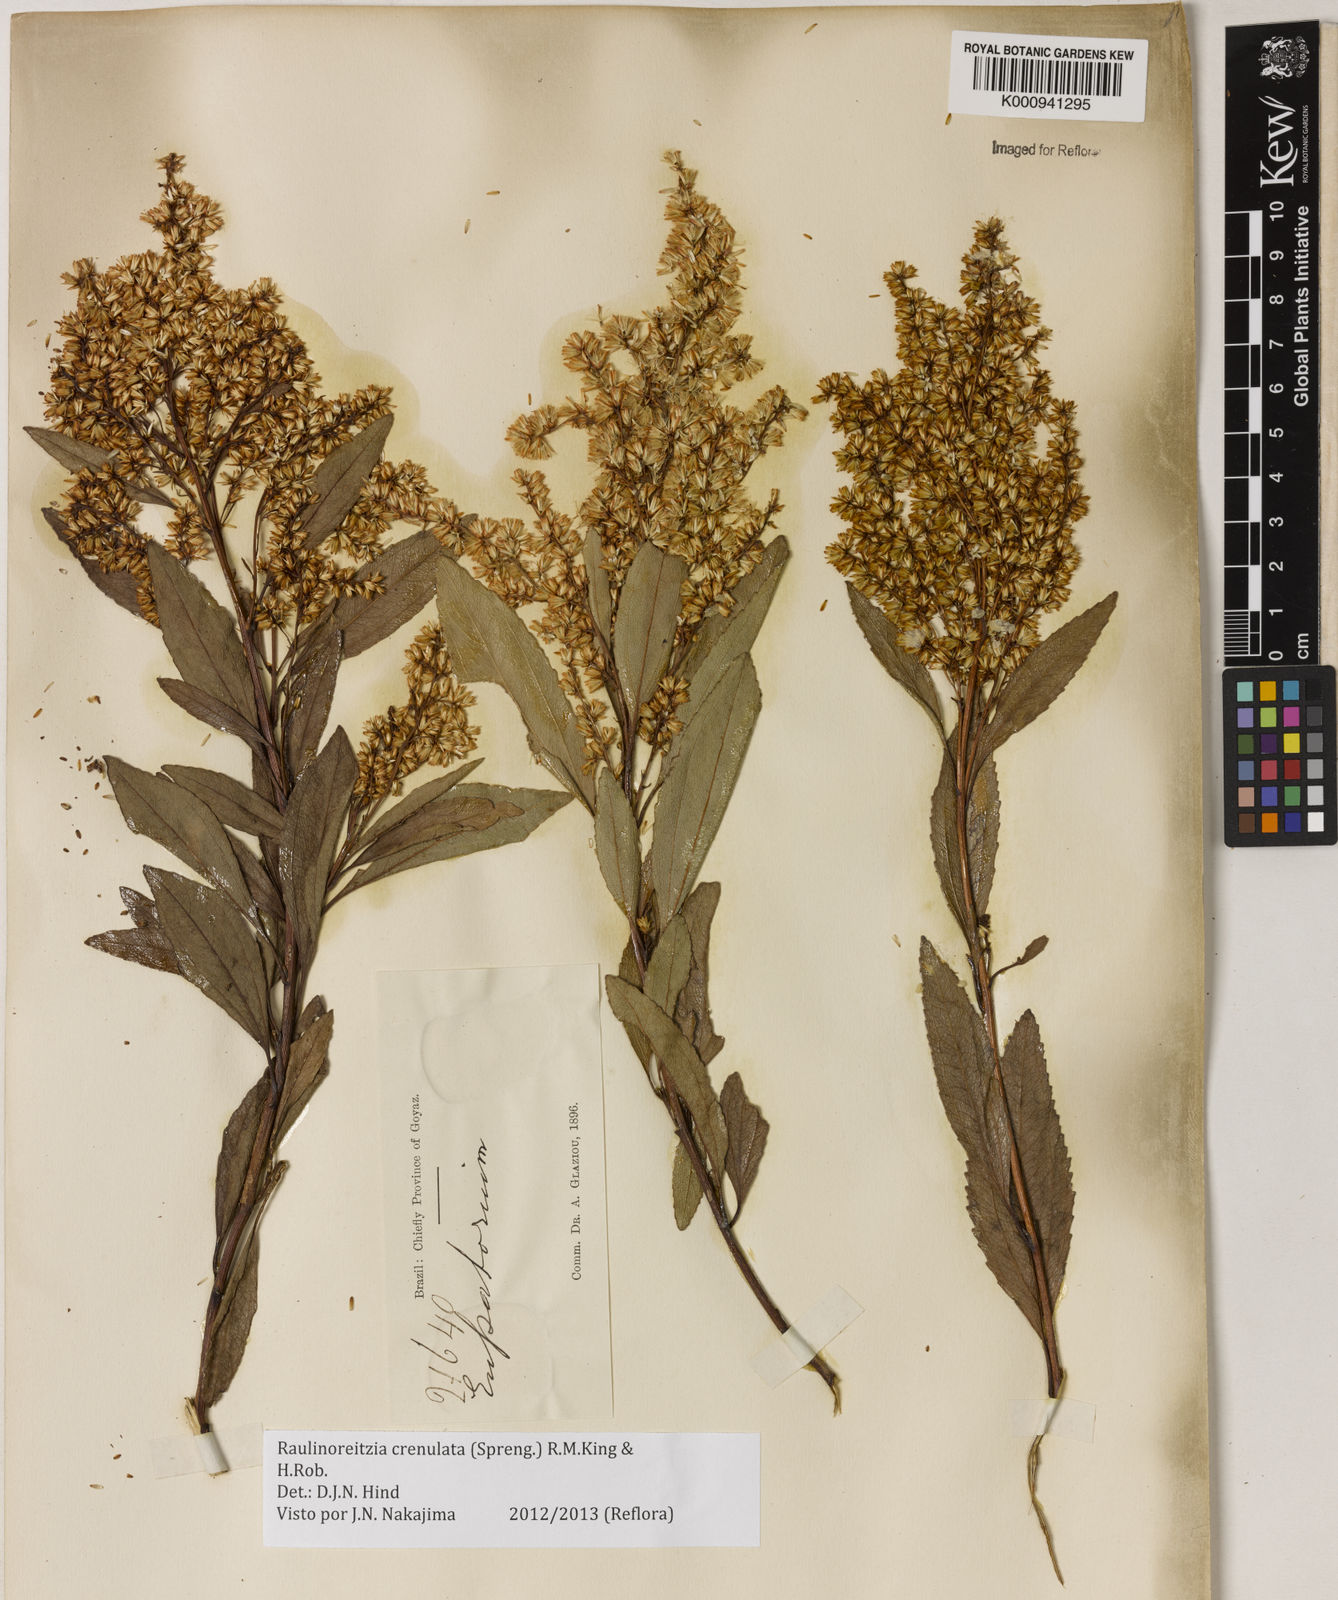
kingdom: Plantae
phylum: Tracheophyta
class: Magnoliopsida
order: Asterales
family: Asteraceae
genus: Raulinoreitzia
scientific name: Raulinoreitzia crenulata
